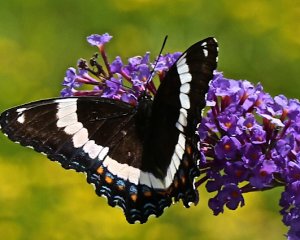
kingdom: Animalia
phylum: Arthropoda
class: Insecta
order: Lepidoptera
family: Nymphalidae
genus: Limenitis
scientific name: Limenitis arthemis
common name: Red-spotted Admiral
